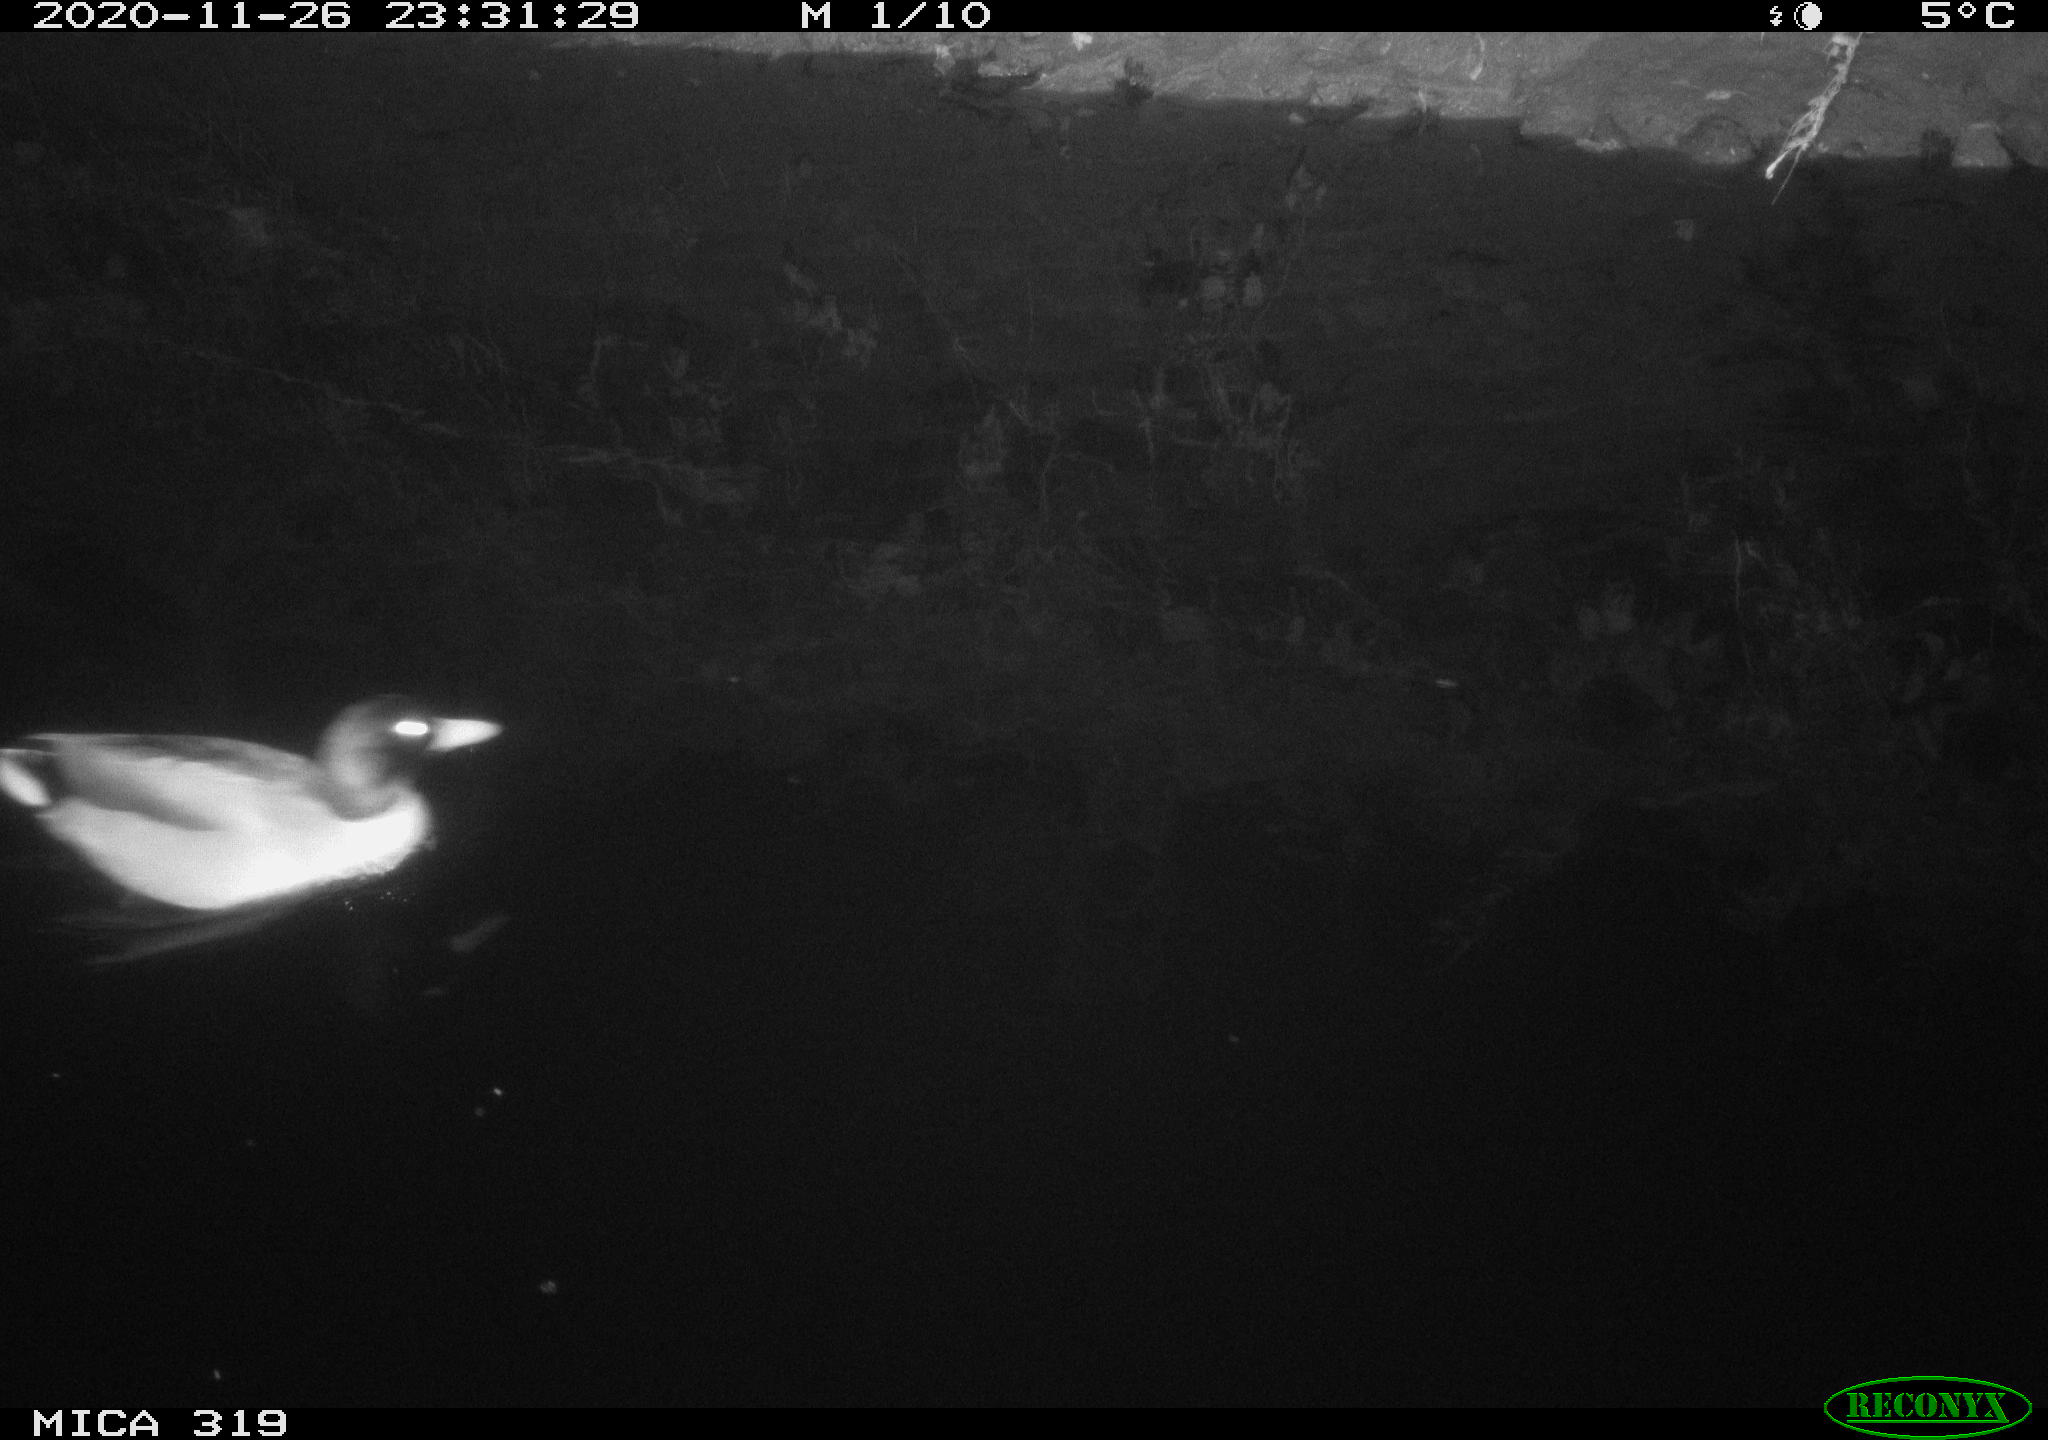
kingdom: Animalia
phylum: Chordata
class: Aves
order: Anseriformes
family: Anatidae
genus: Anas
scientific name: Anas platyrhynchos
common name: Mallard
